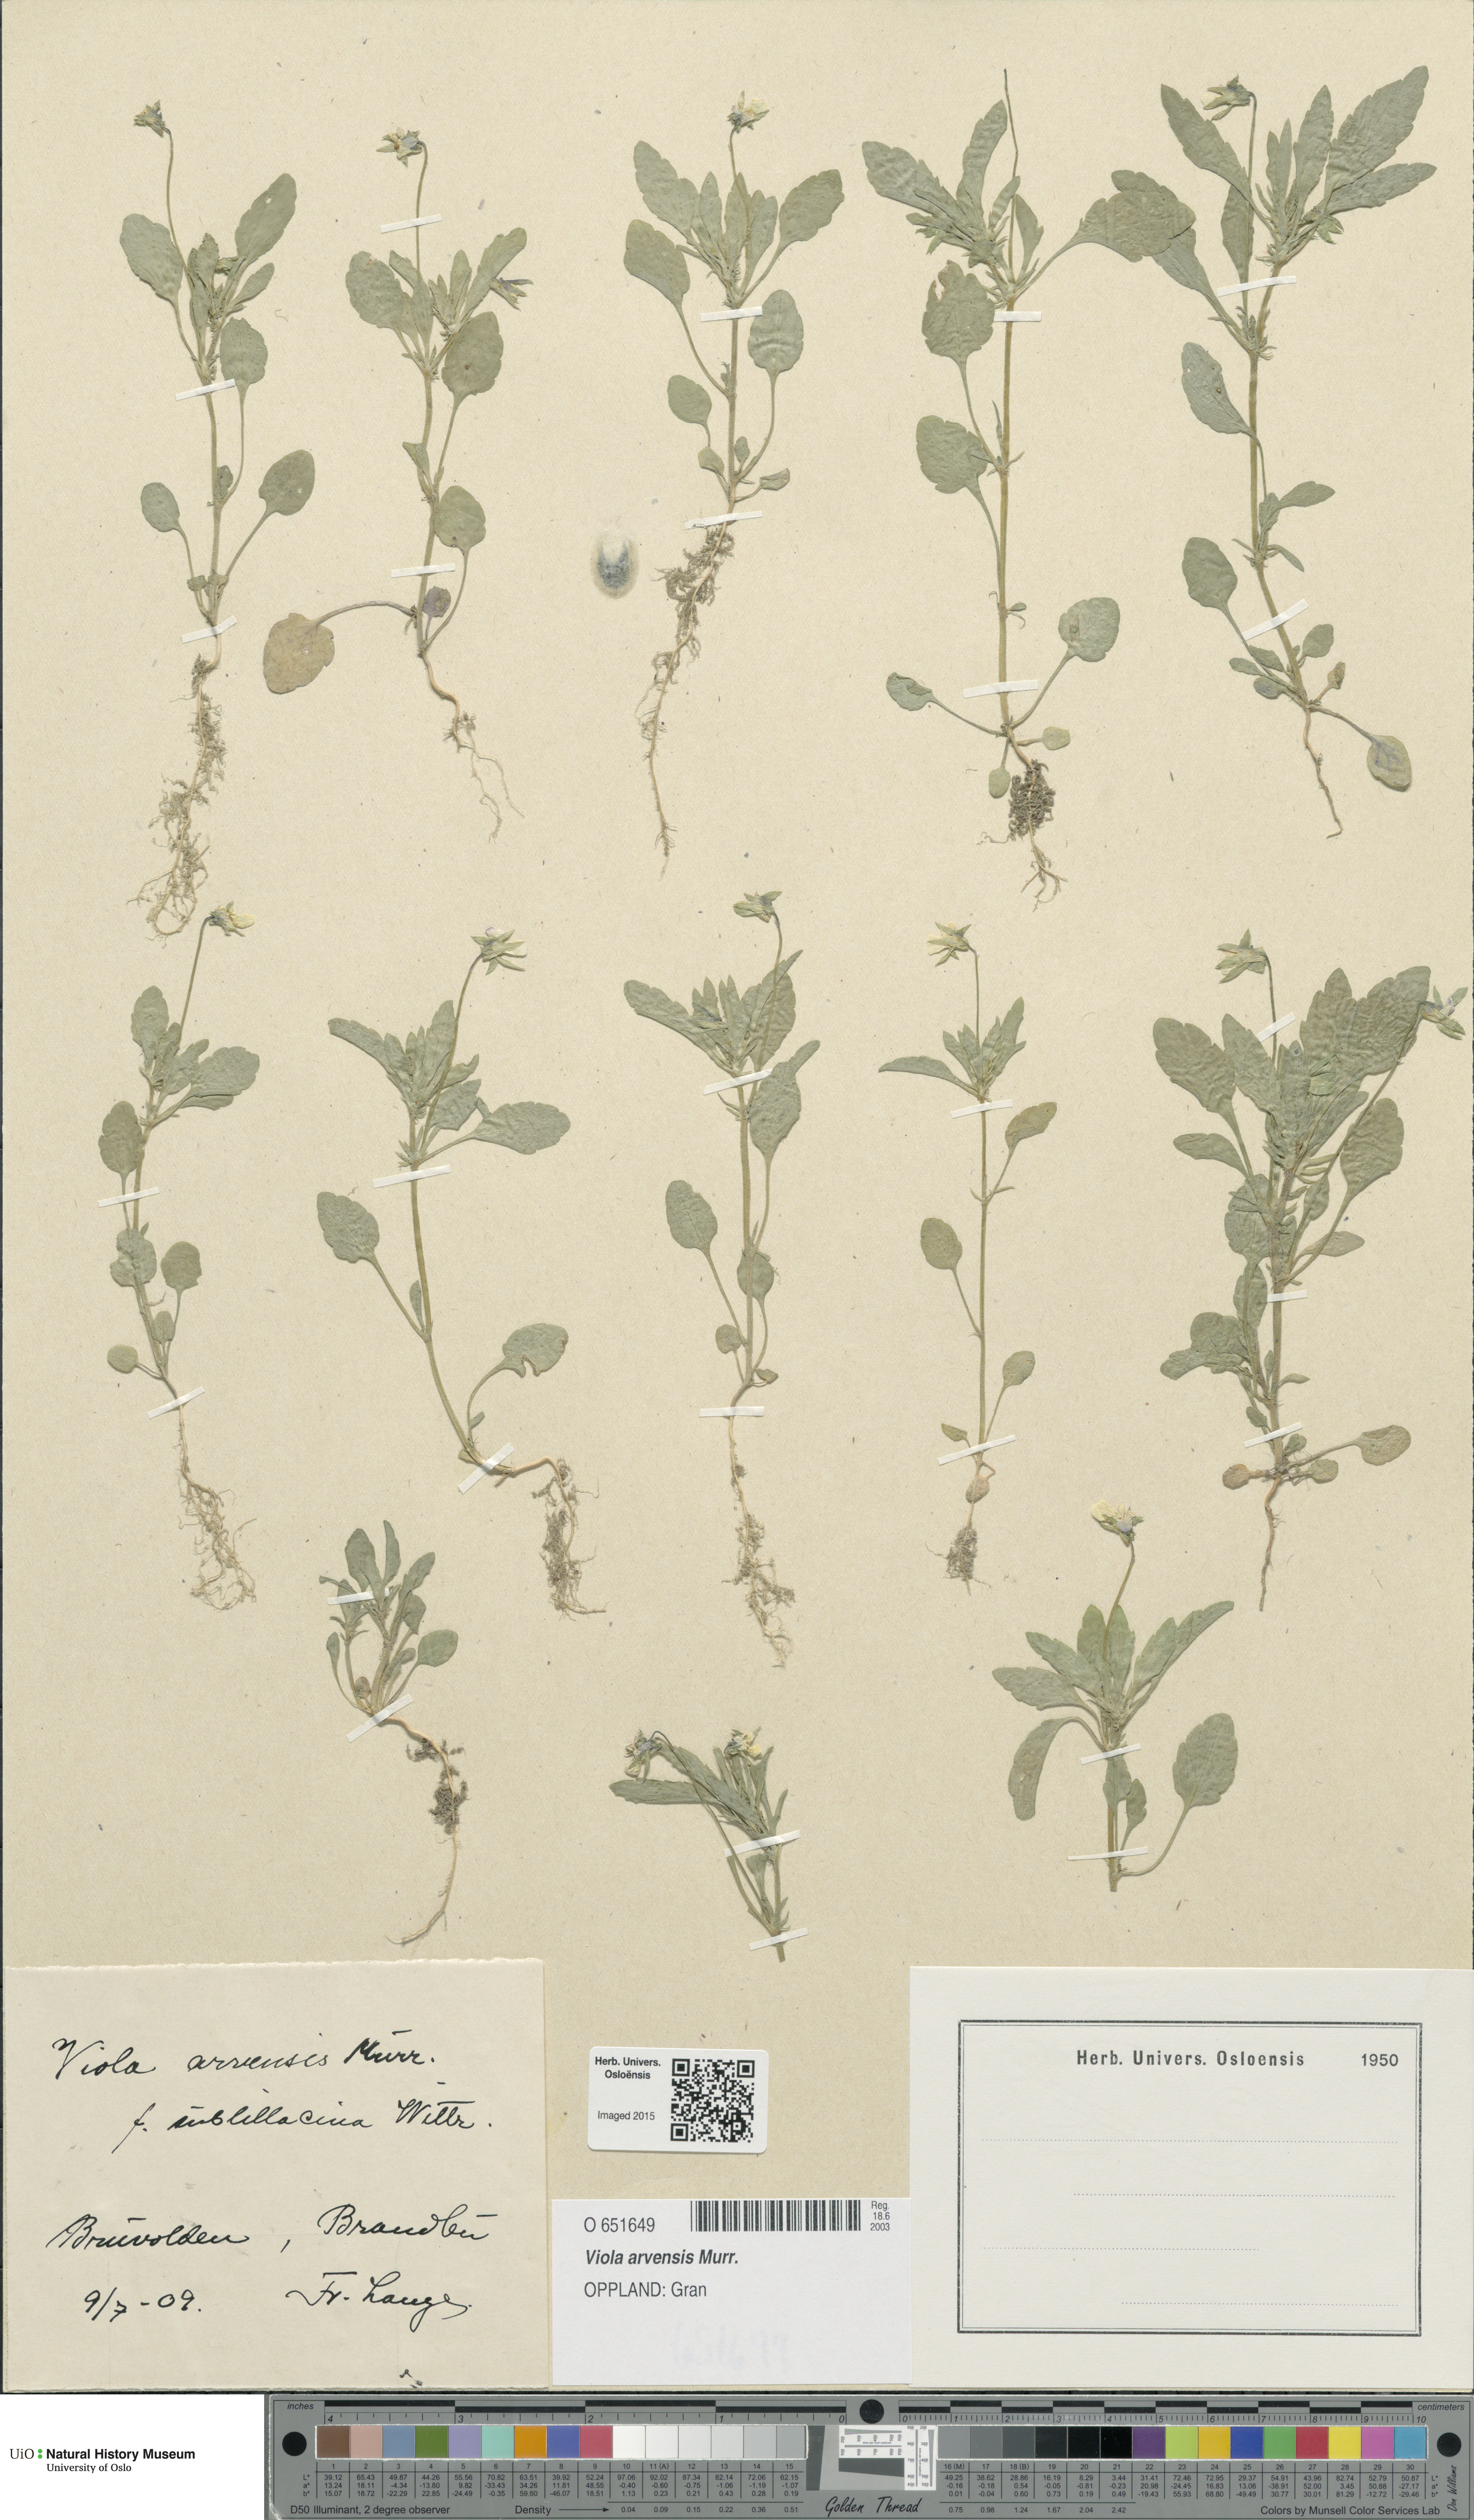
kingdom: Plantae
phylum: Tracheophyta
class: Magnoliopsida
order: Malpighiales
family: Violaceae
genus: Viola
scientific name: Viola arvensis
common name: Field pansy
